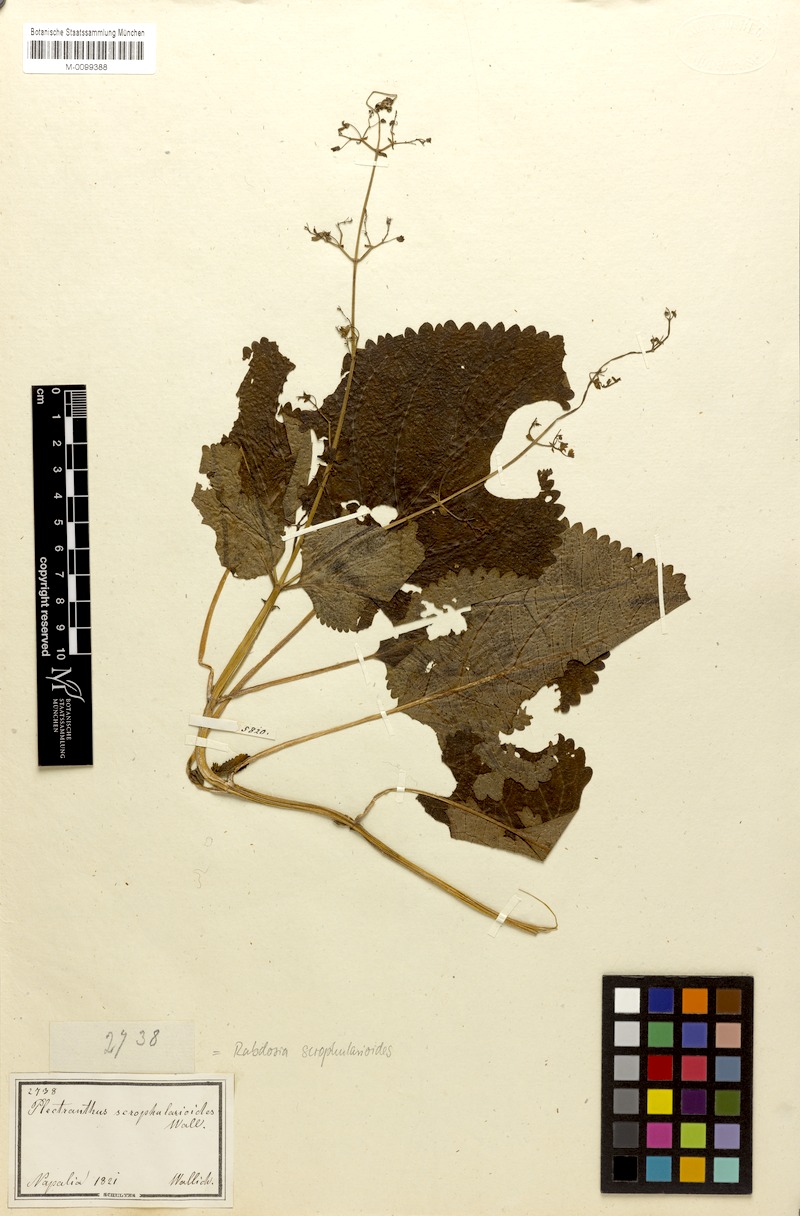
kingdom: Plantae
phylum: Tracheophyta
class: Magnoliopsida
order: Lamiales
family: Lamiaceae
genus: Isodon
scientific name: Isodon scrophularioides
